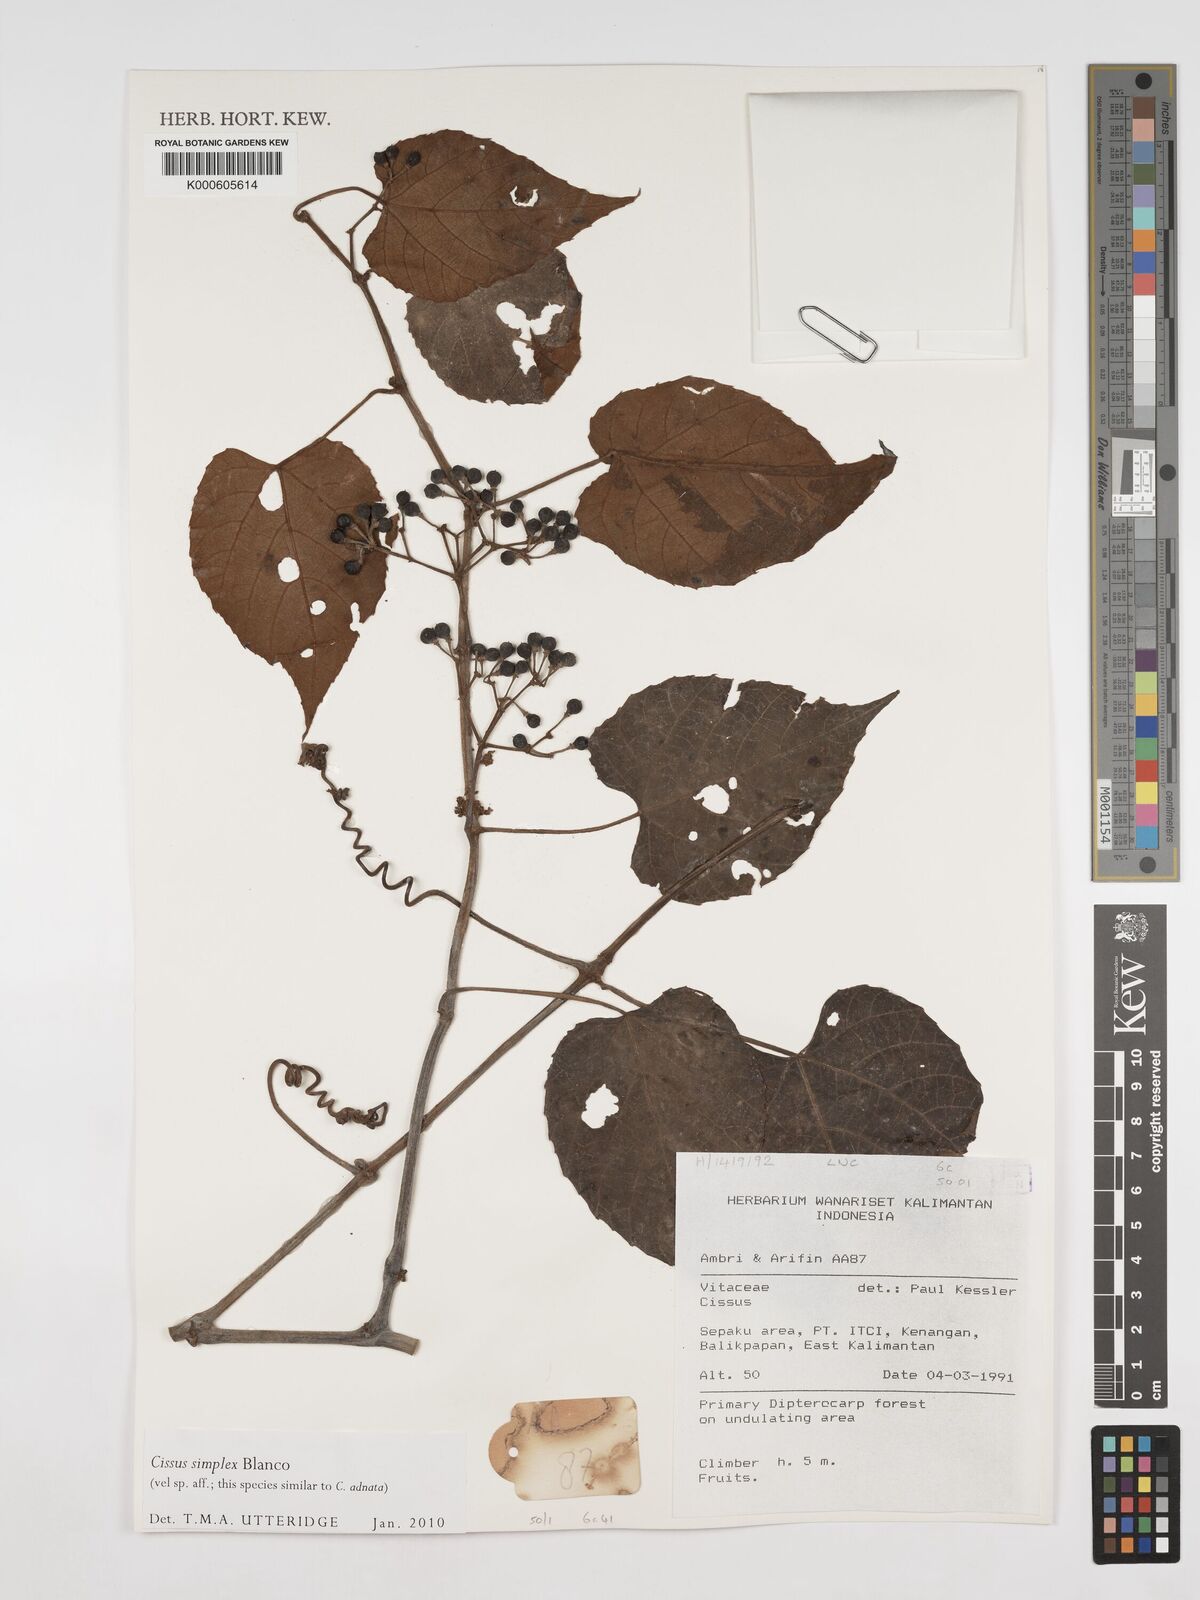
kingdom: Plantae
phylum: Tracheophyta
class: Magnoliopsida
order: Vitales
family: Vitaceae
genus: Cissus
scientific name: Cissus aristata
